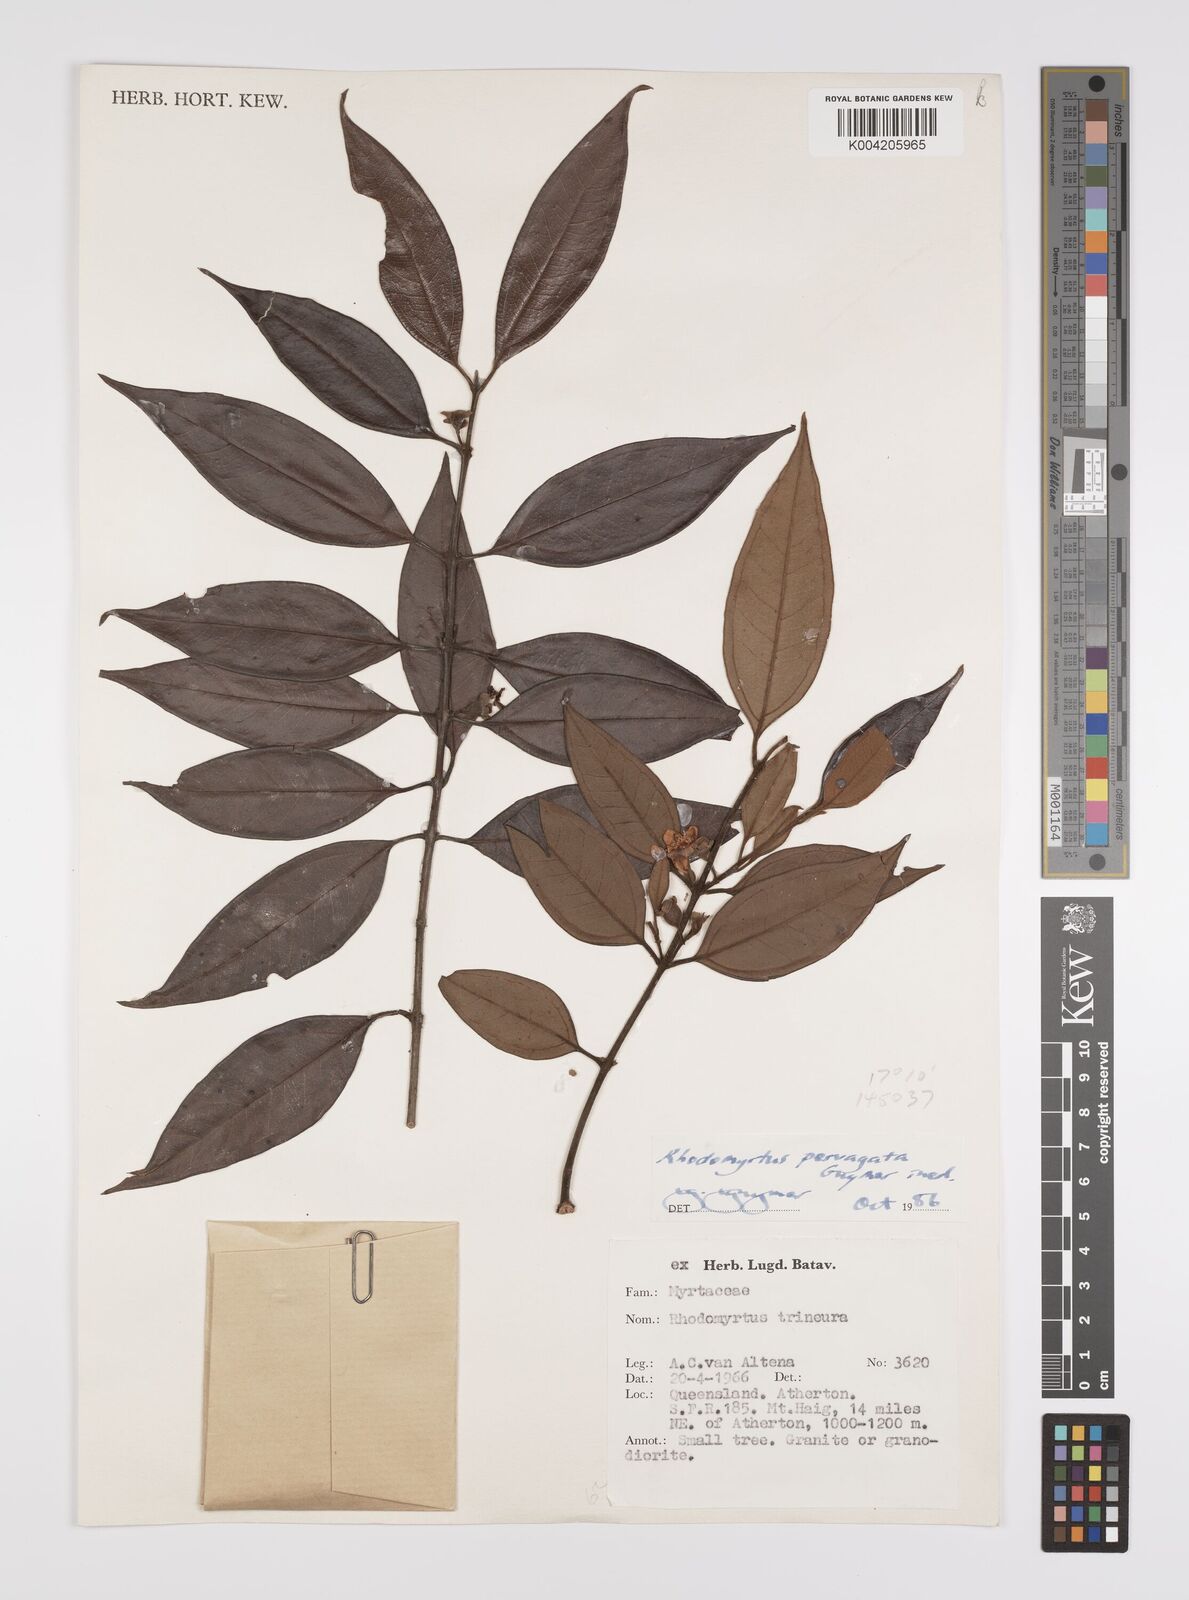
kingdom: Plantae
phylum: Tracheophyta
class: Magnoliopsida
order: Myrtales
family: Myrtaceae
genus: Rhodomyrtus
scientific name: Rhodomyrtus pervagata
